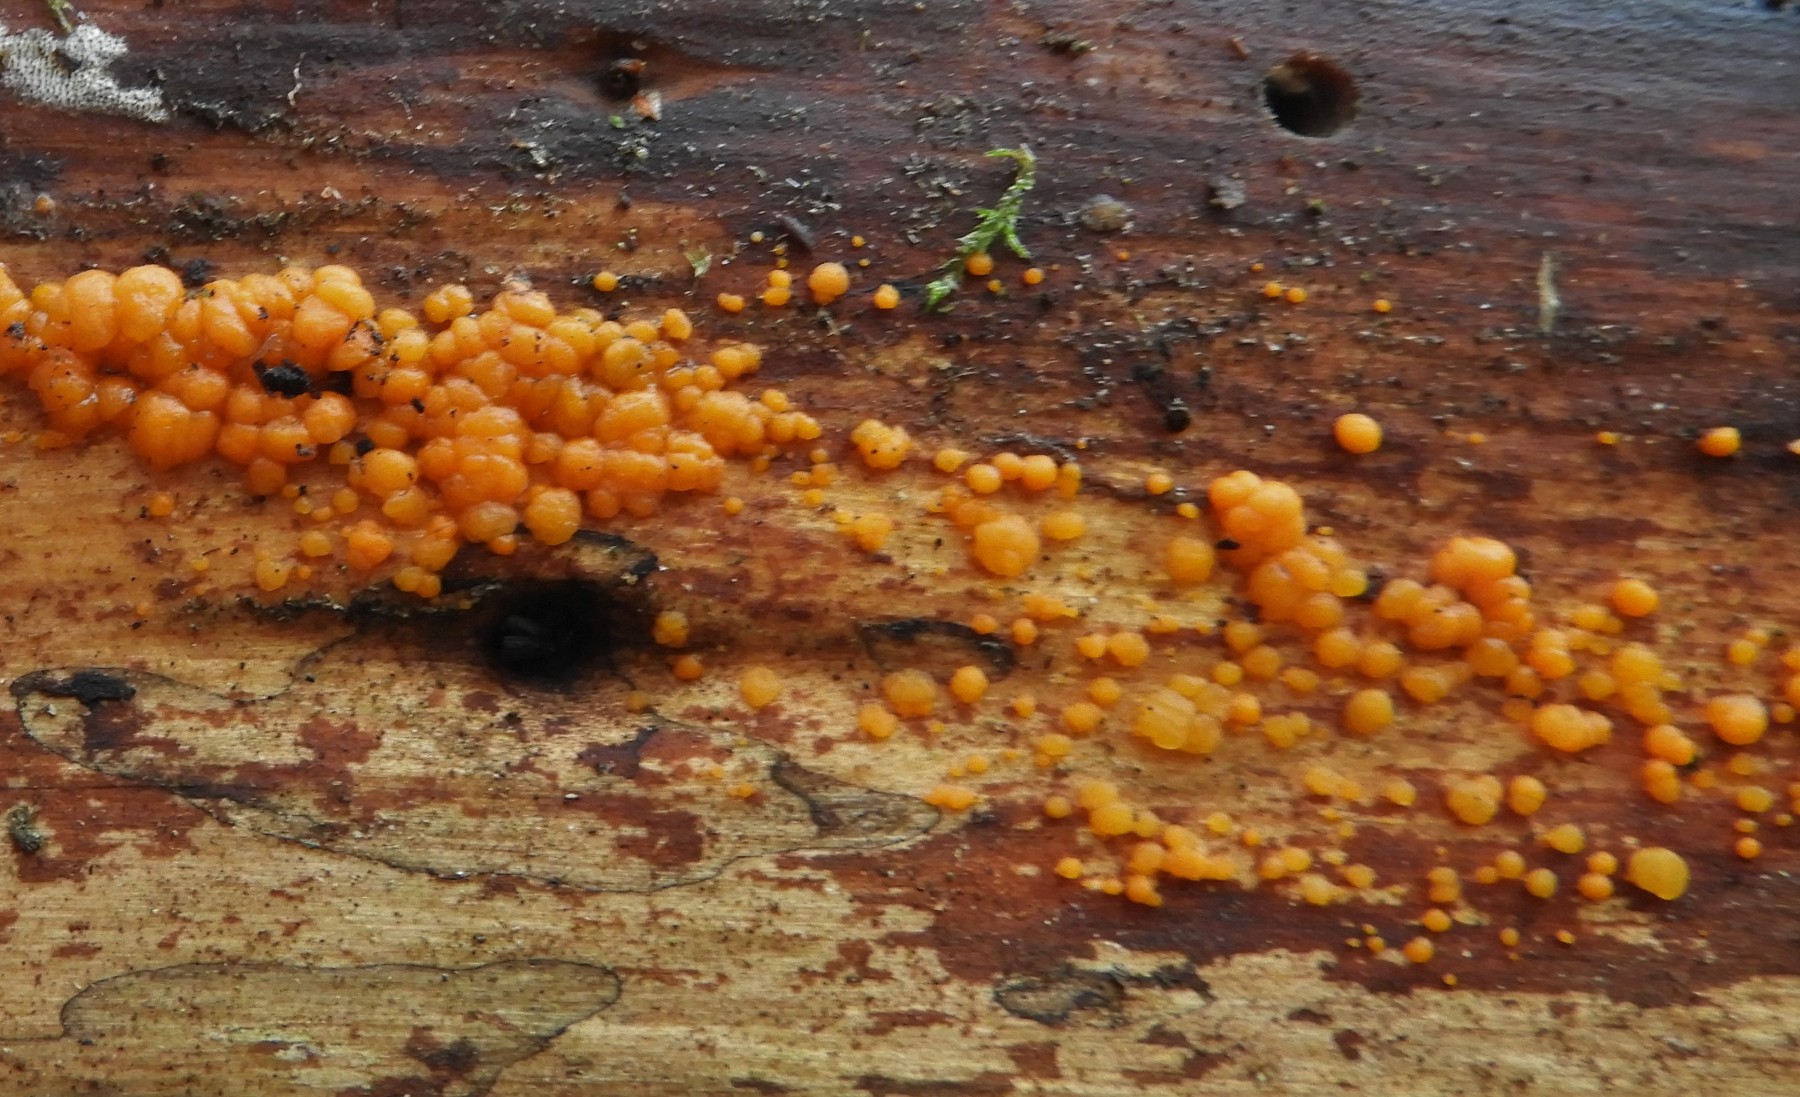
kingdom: Fungi
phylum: Basidiomycota
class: Dacrymycetes
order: Dacrymycetales
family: Dacrymycetaceae
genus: Dacrymyces
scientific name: Dacrymyces stillatus
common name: almindelig tåresvamp
